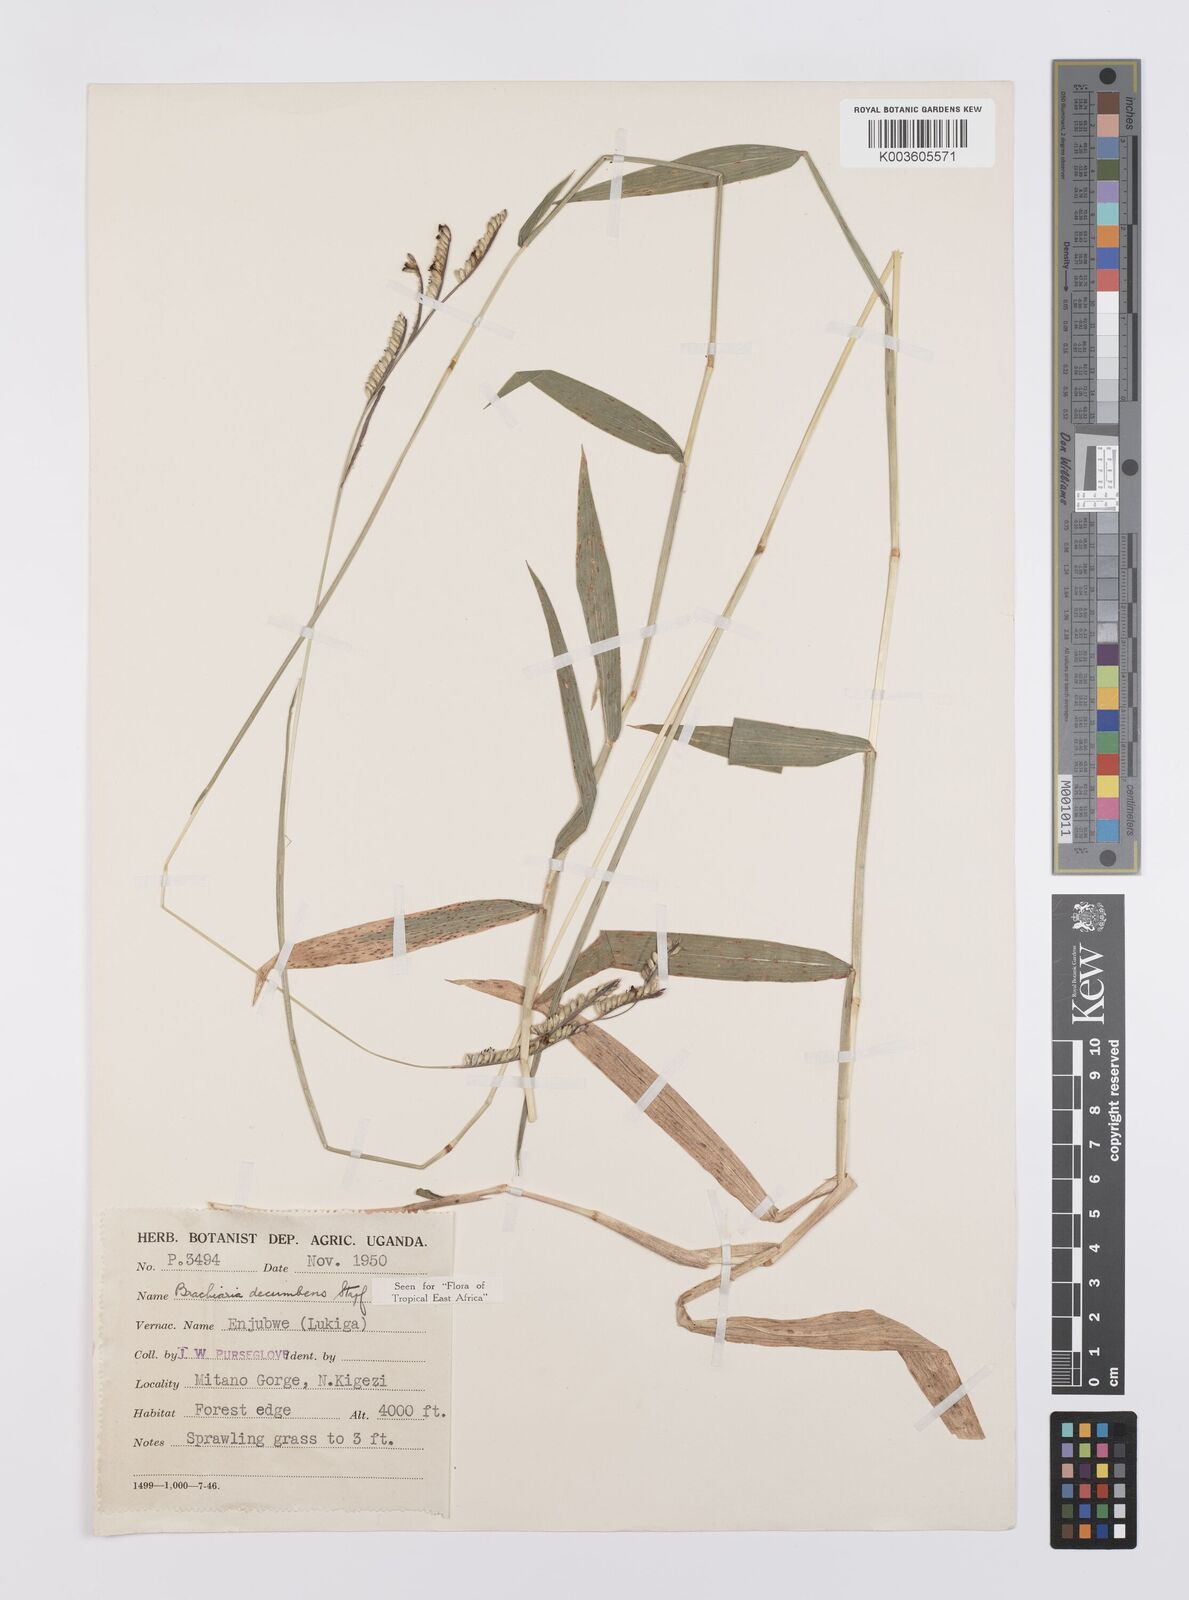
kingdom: Plantae
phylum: Tracheophyta
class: Liliopsida
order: Poales
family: Poaceae
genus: Urochloa
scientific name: Urochloa eminii
